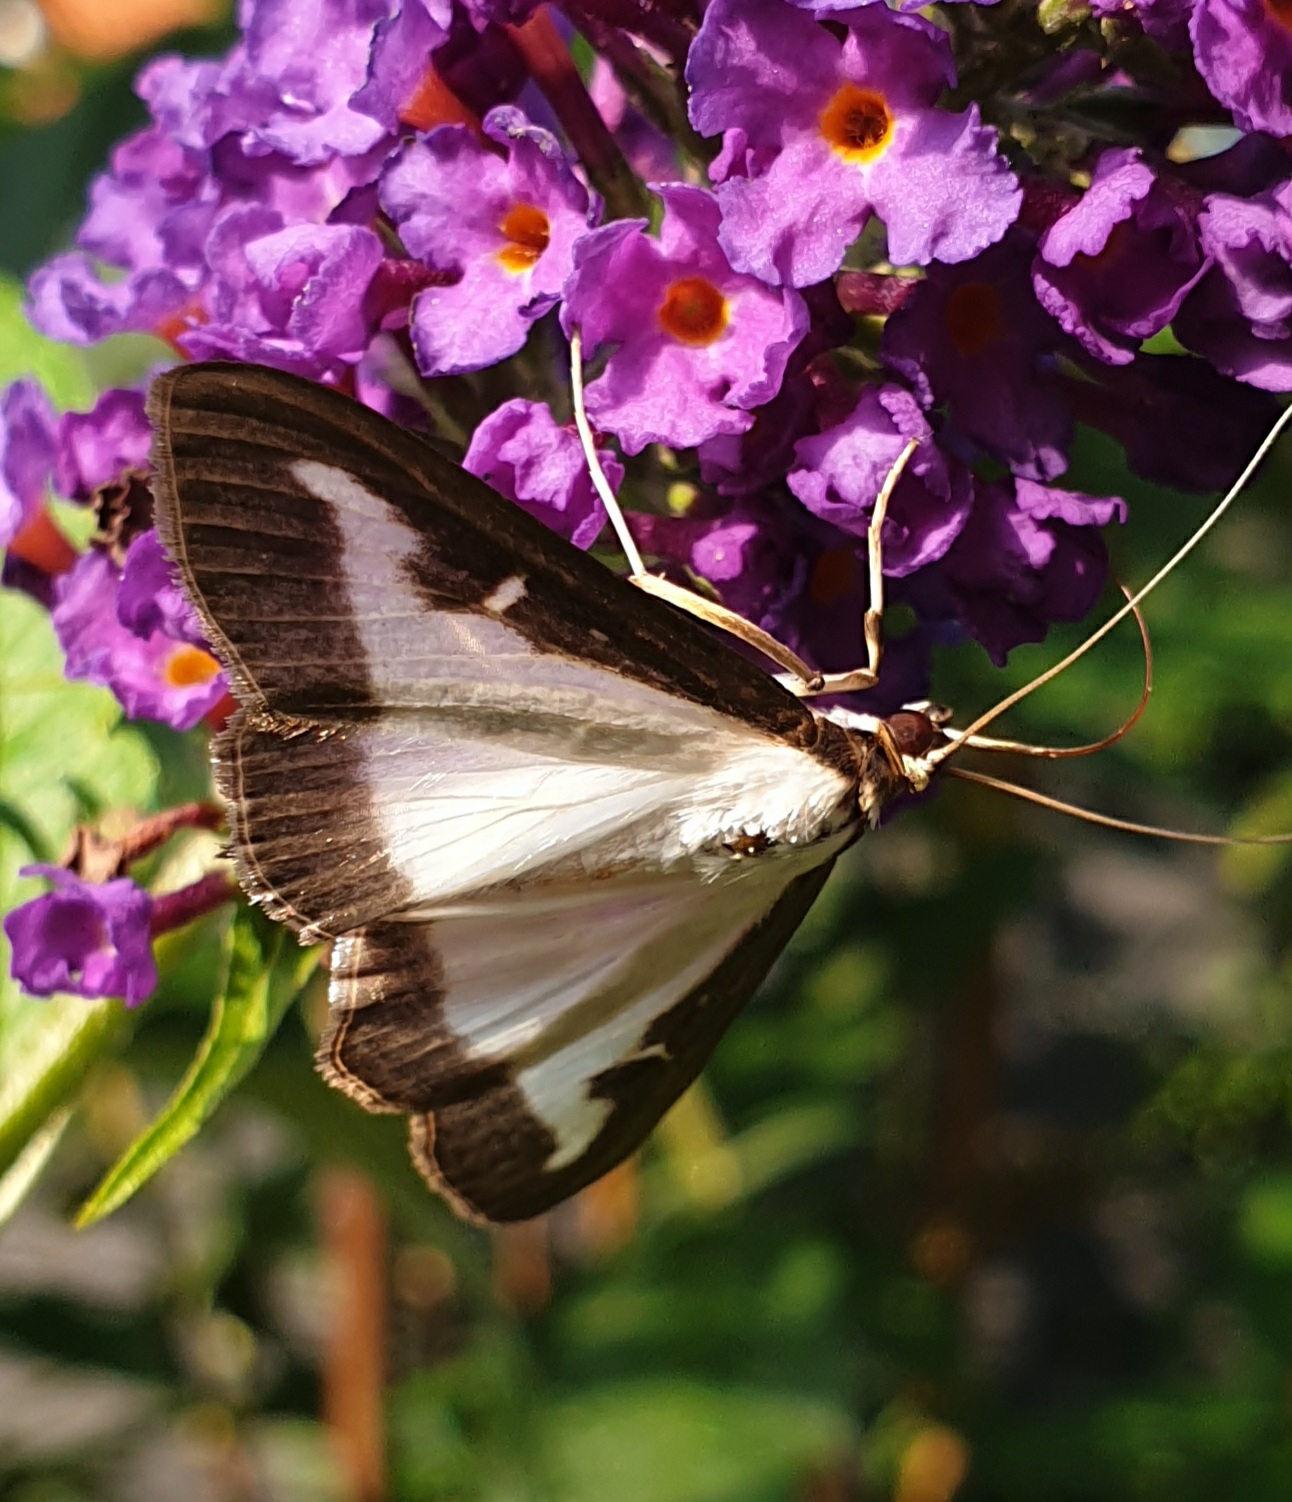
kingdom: Animalia
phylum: Arthropoda
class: Insecta
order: Lepidoptera
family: Crambidae
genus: Cydalima
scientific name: Cydalima perspectalis
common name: Buksbomhalvmøl
